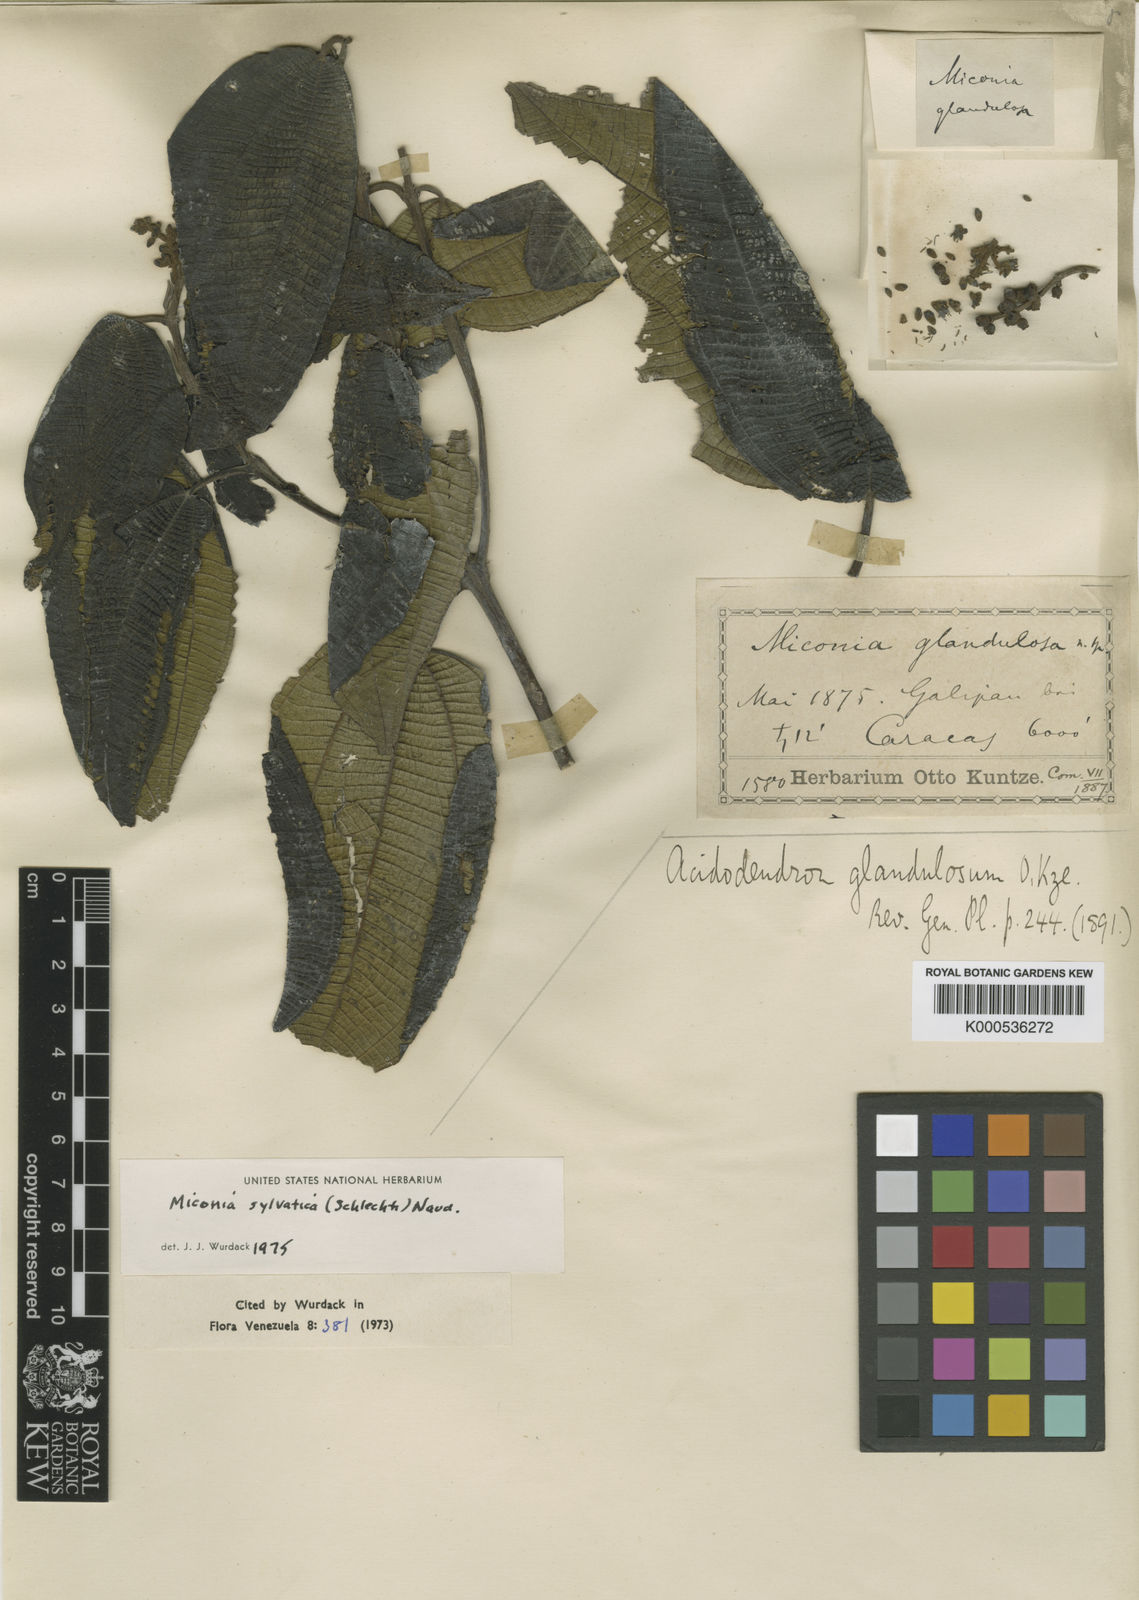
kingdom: Plantae
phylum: Tracheophyta
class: Magnoliopsida
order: Myrtales
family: Melastomataceae
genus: Miconia
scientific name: Miconia sylvatica
